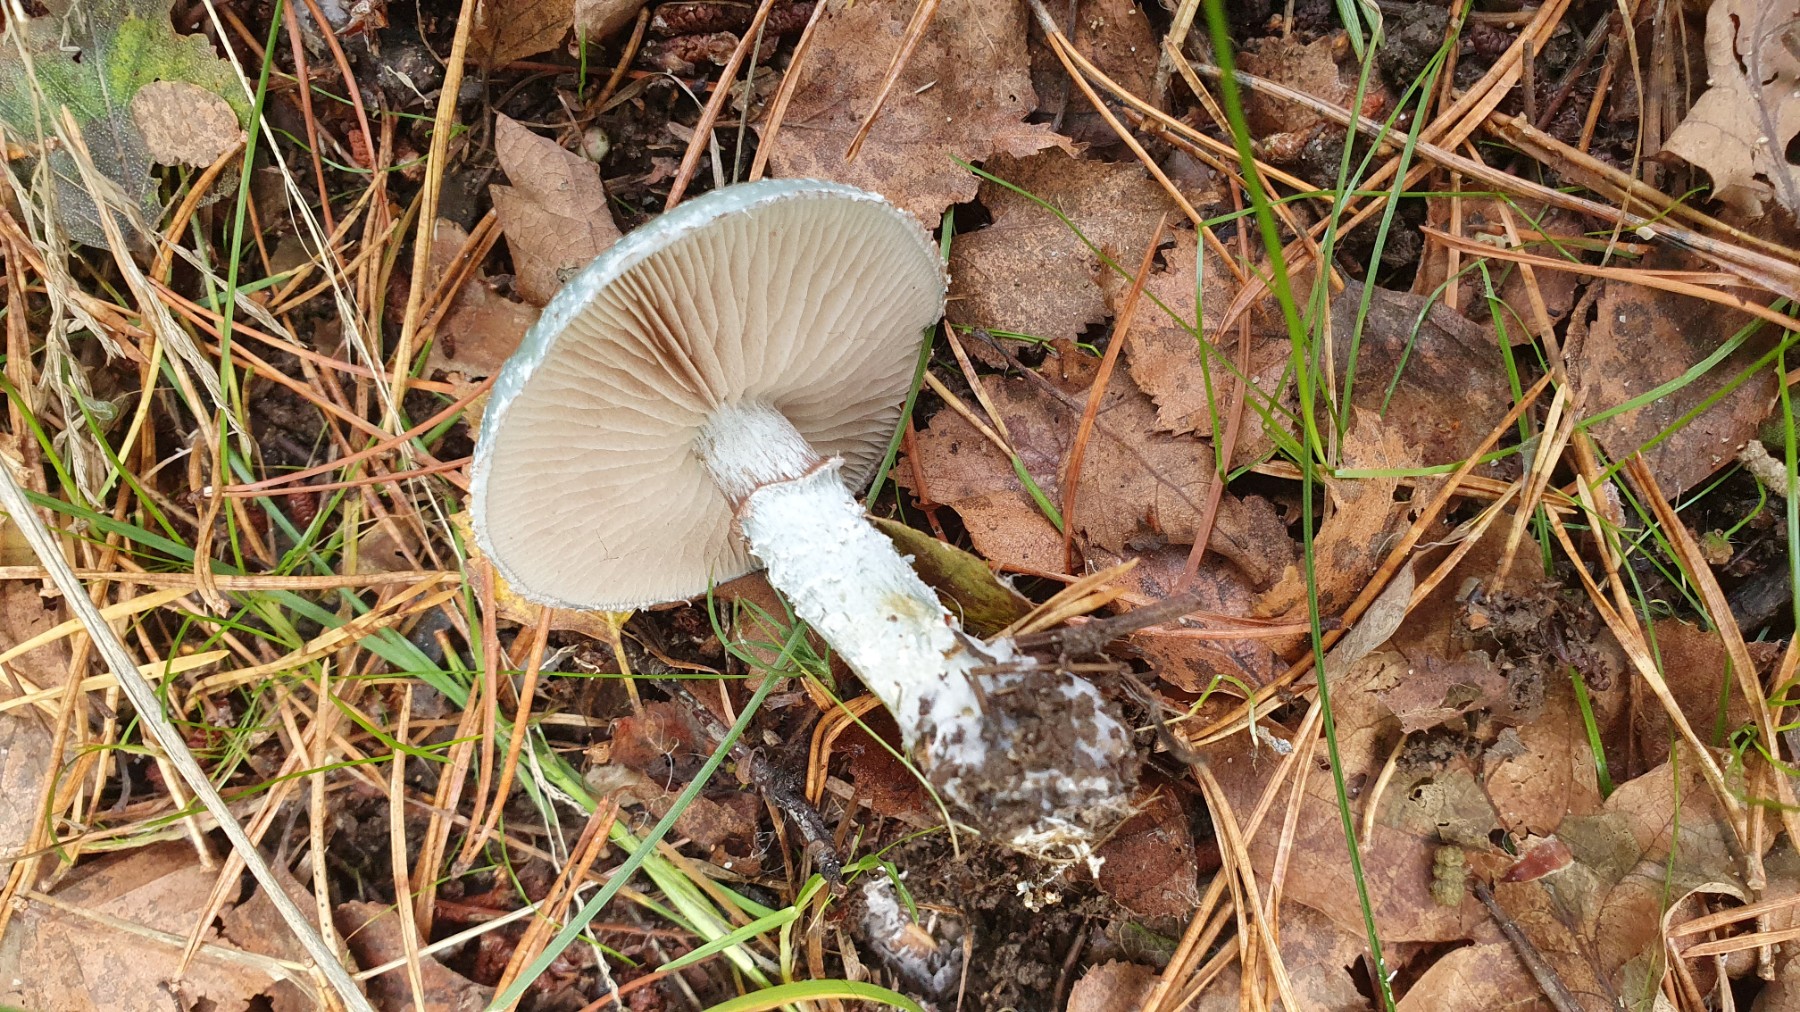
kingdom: Fungi
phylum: Basidiomycota
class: Agaricomycetes
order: Agaricales
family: Strophariaceae
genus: Stropharia
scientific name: Stropharia cyanea
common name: blågrøn bredblad
